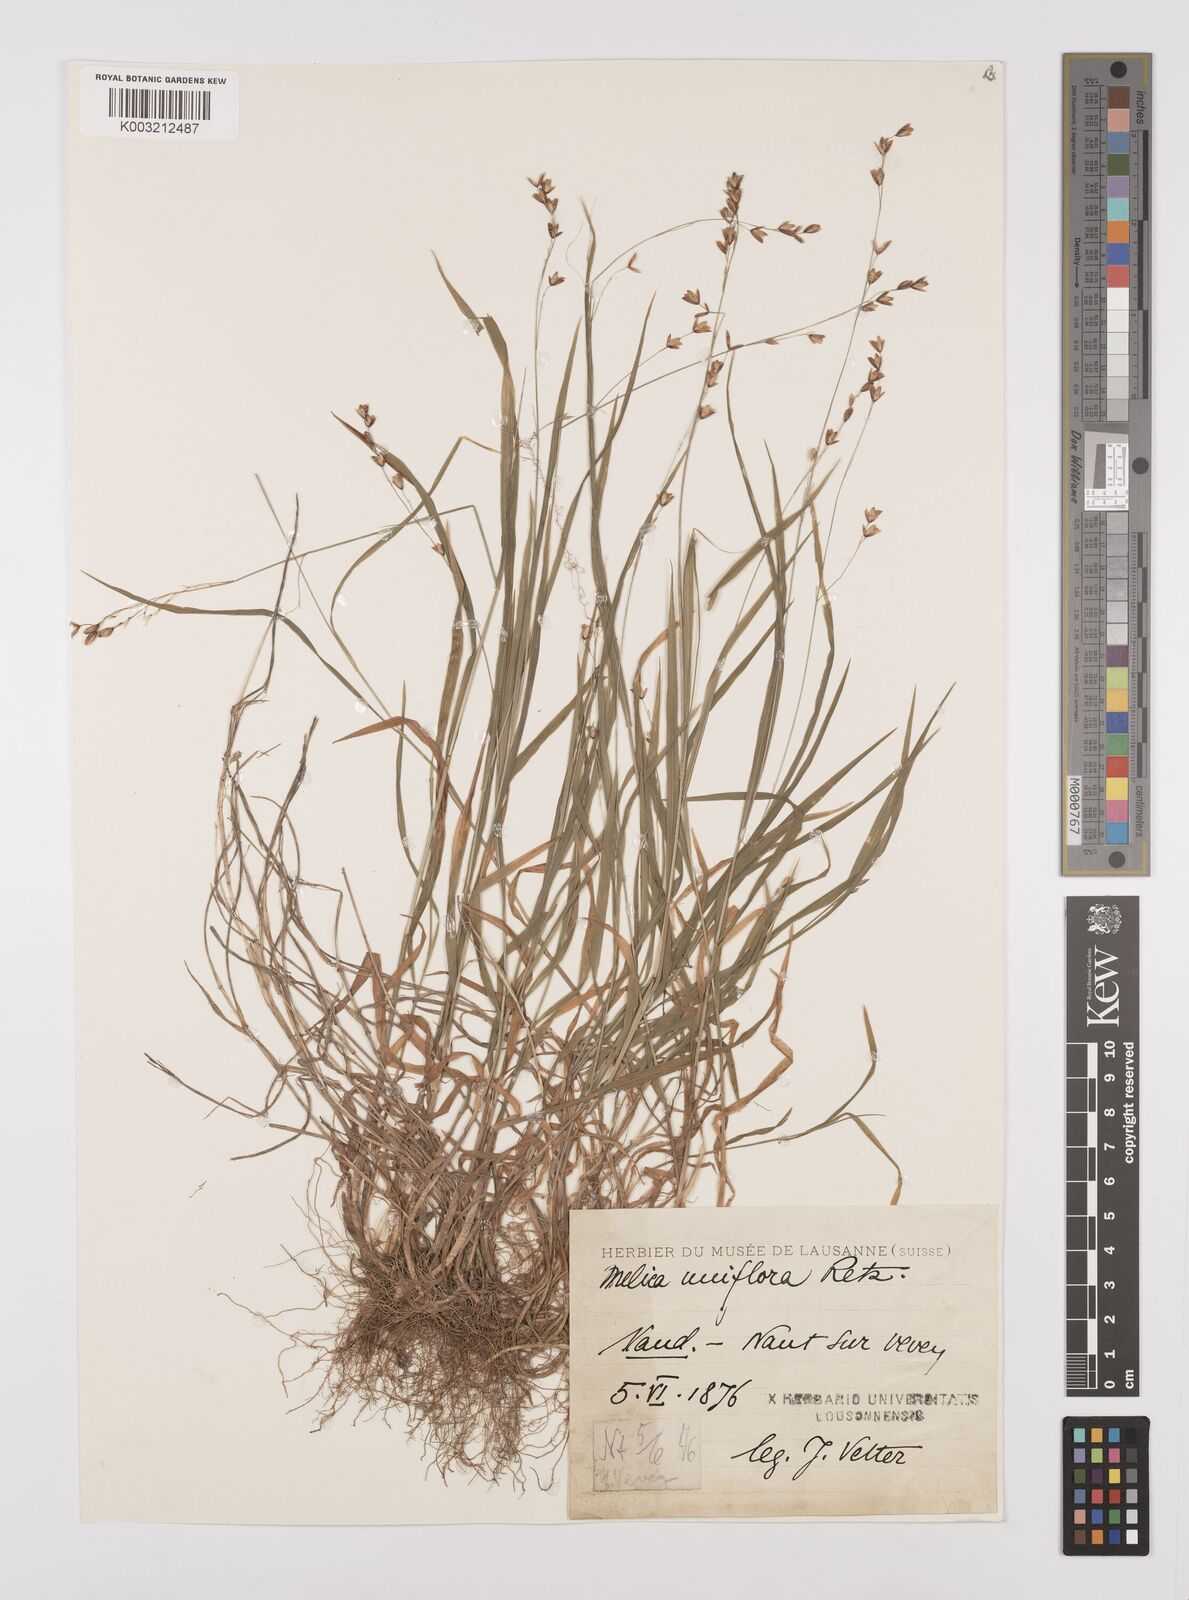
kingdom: Plantae
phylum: Tracheophyta
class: Liliopsida
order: Poales
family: Poaceae
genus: Melica
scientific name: Melica uniflora
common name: Wood melick
